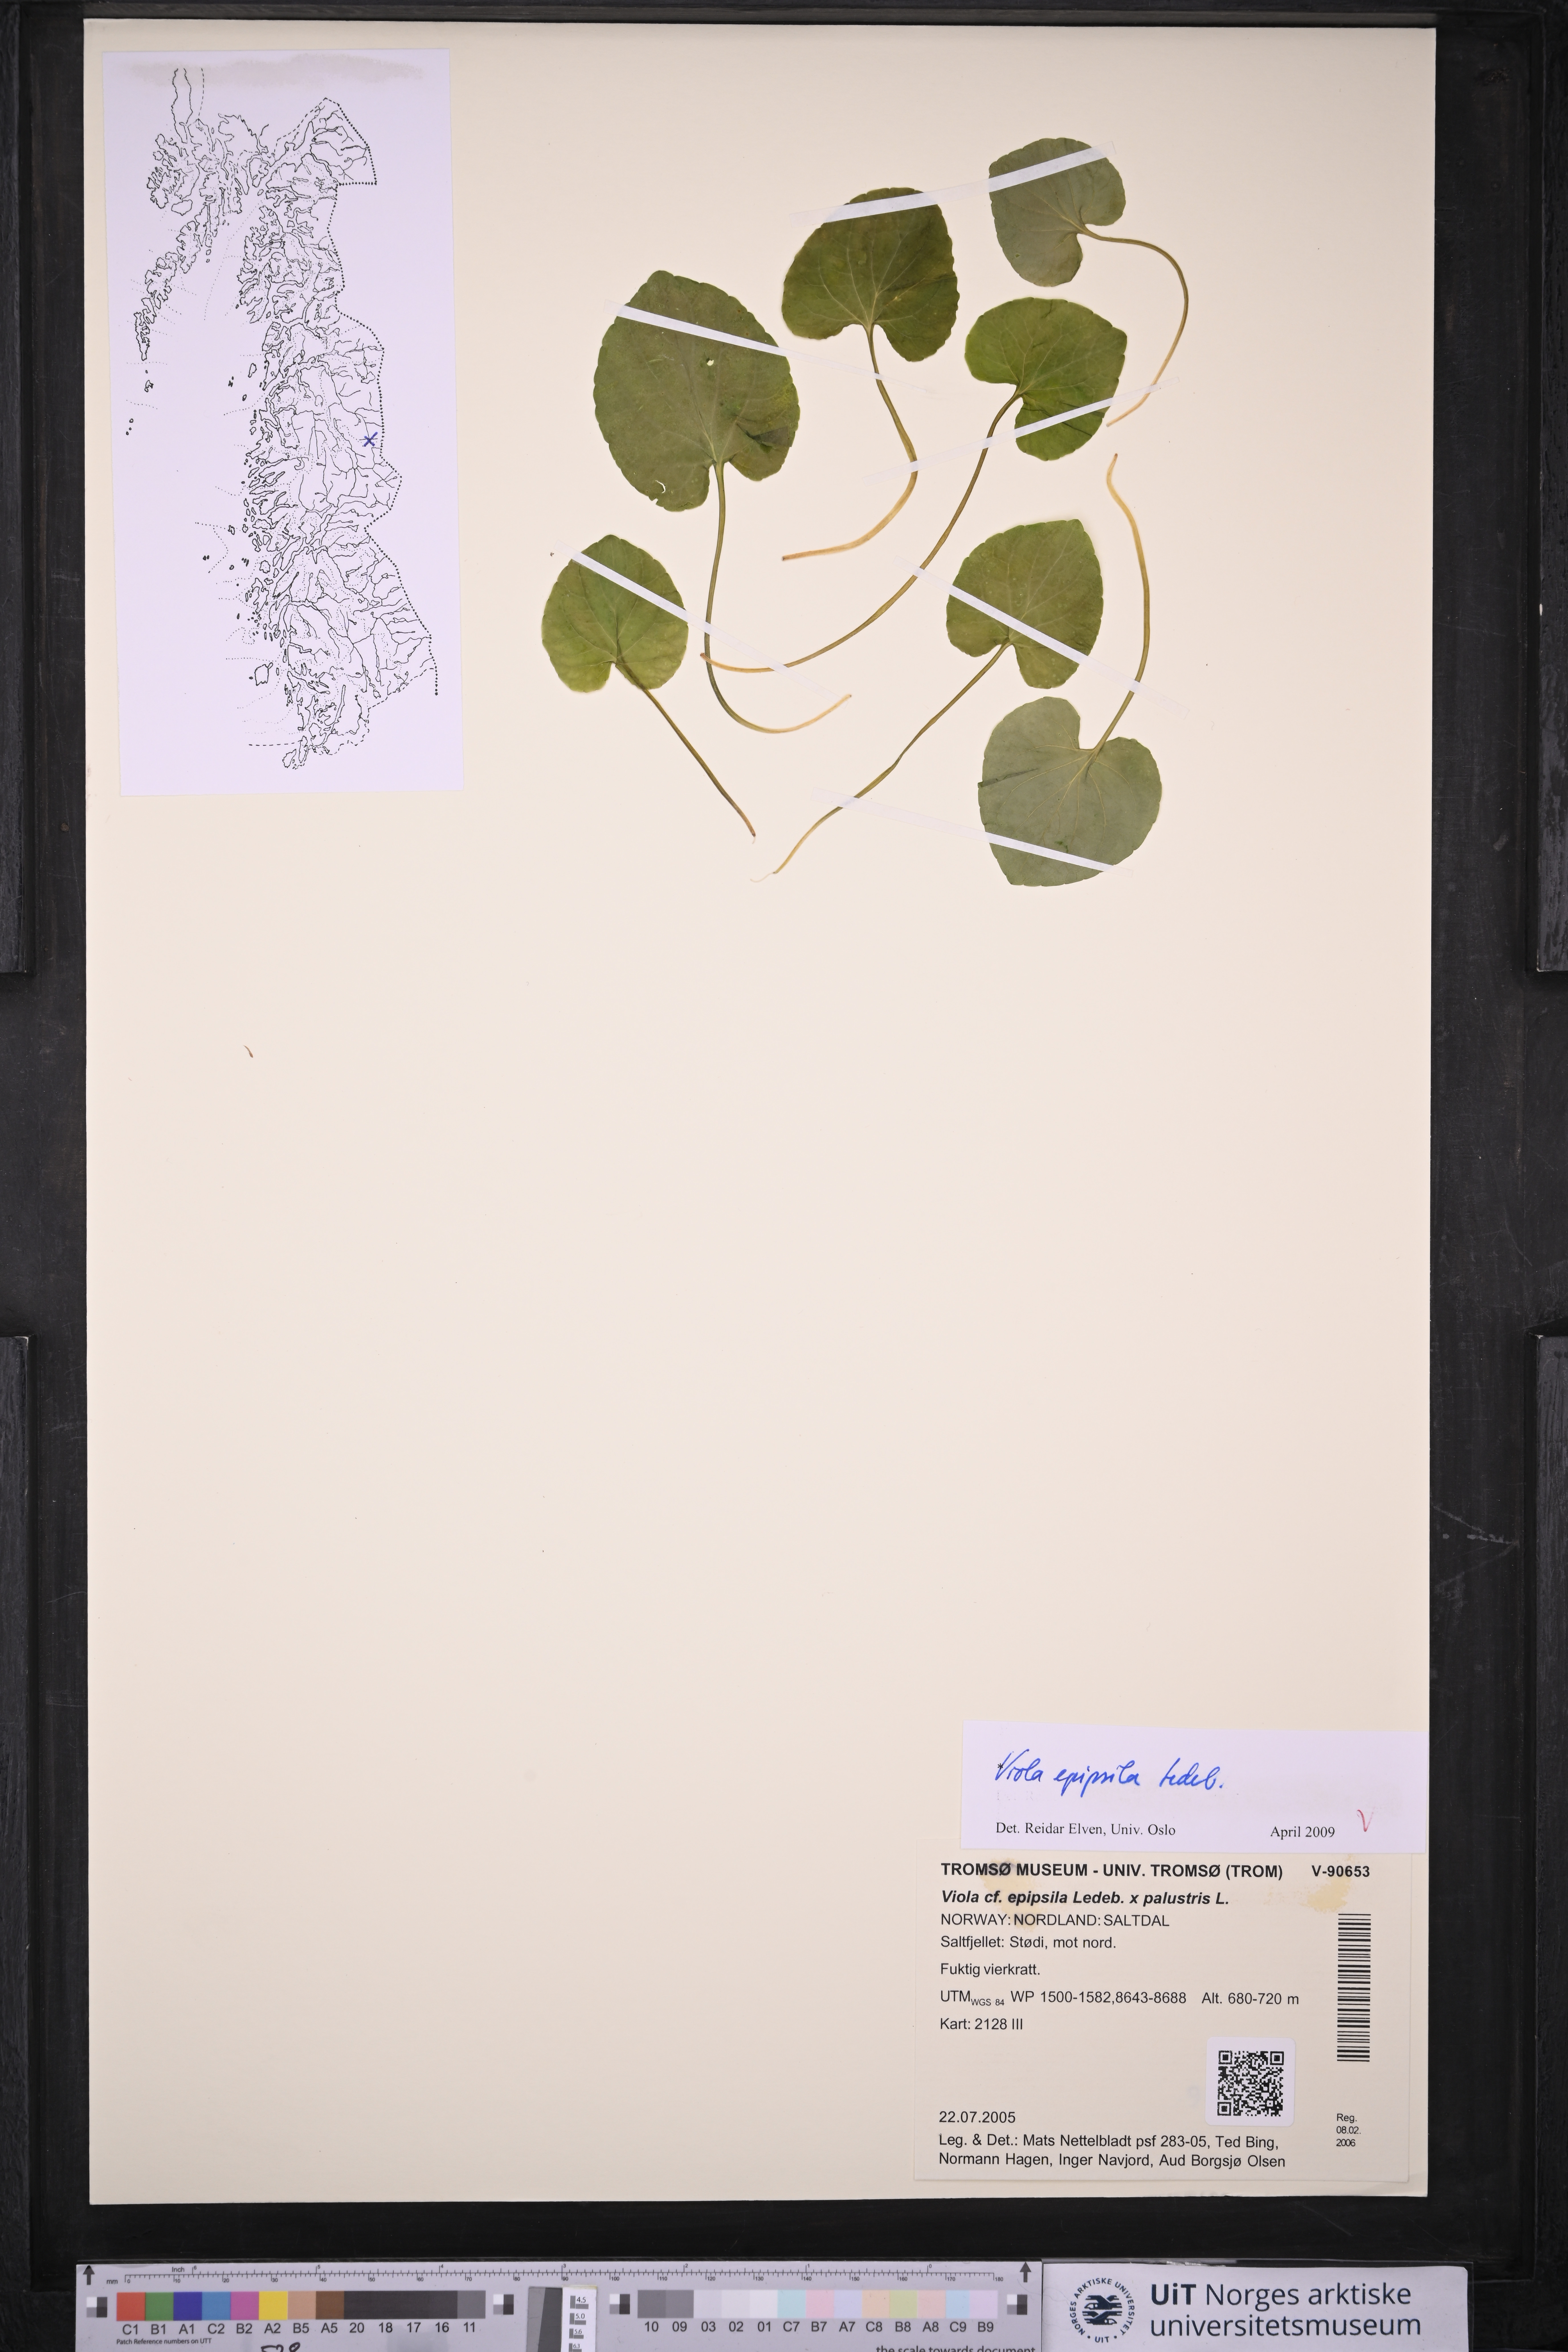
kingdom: Plantae
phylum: Tracheophyta
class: Magnoliopsida
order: Malpighiales
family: Violaceae
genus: Viola
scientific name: Viola epipsila
